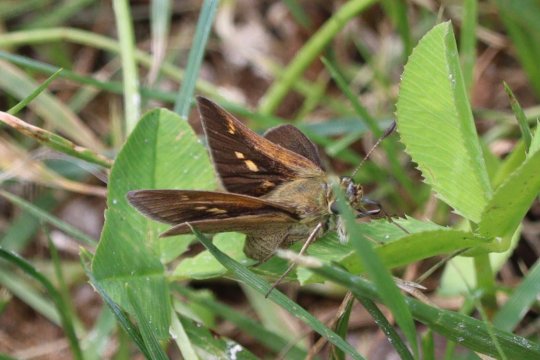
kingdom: Animalia
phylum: Arthropoda
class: Insecta
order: Lepidoptera
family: Hesperiidae
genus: Polites
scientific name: Polites themistocles
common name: Tawny-edged Skipper
